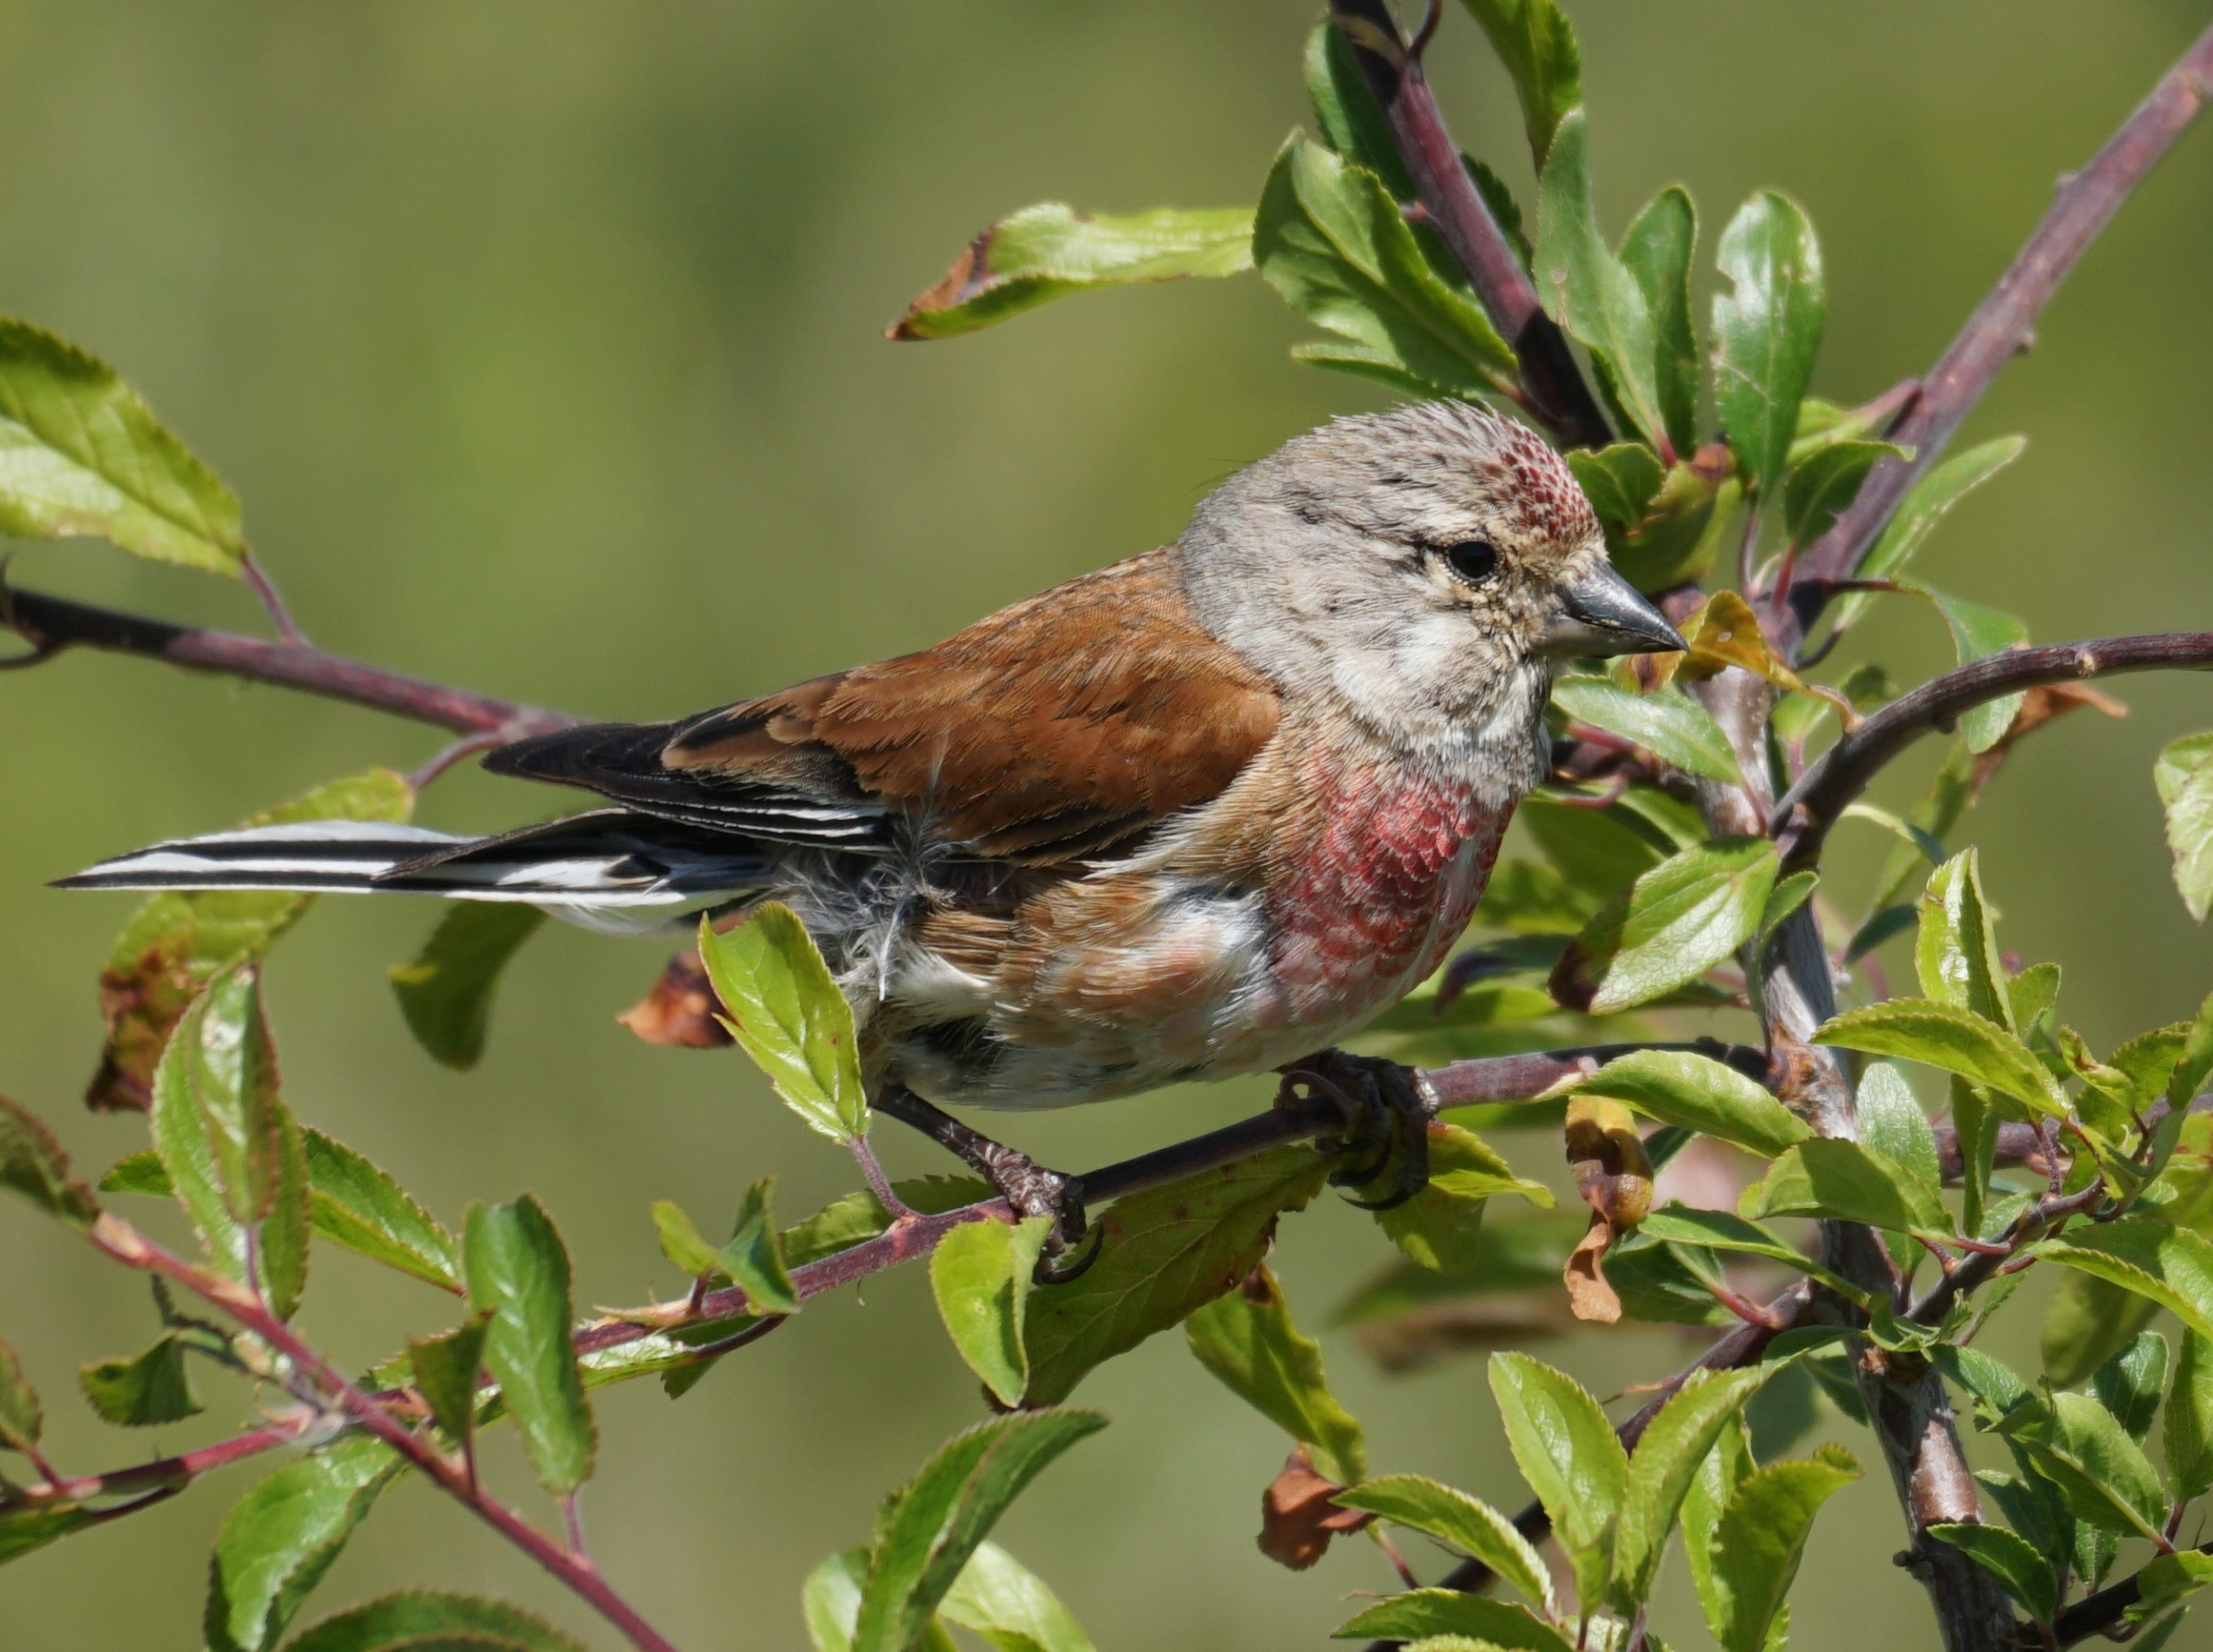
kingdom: Animalia
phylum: Chordata
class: Aves
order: Passeriformes
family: Fringillidae
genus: Linaria
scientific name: Linaria cannabina
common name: Tornirisk
